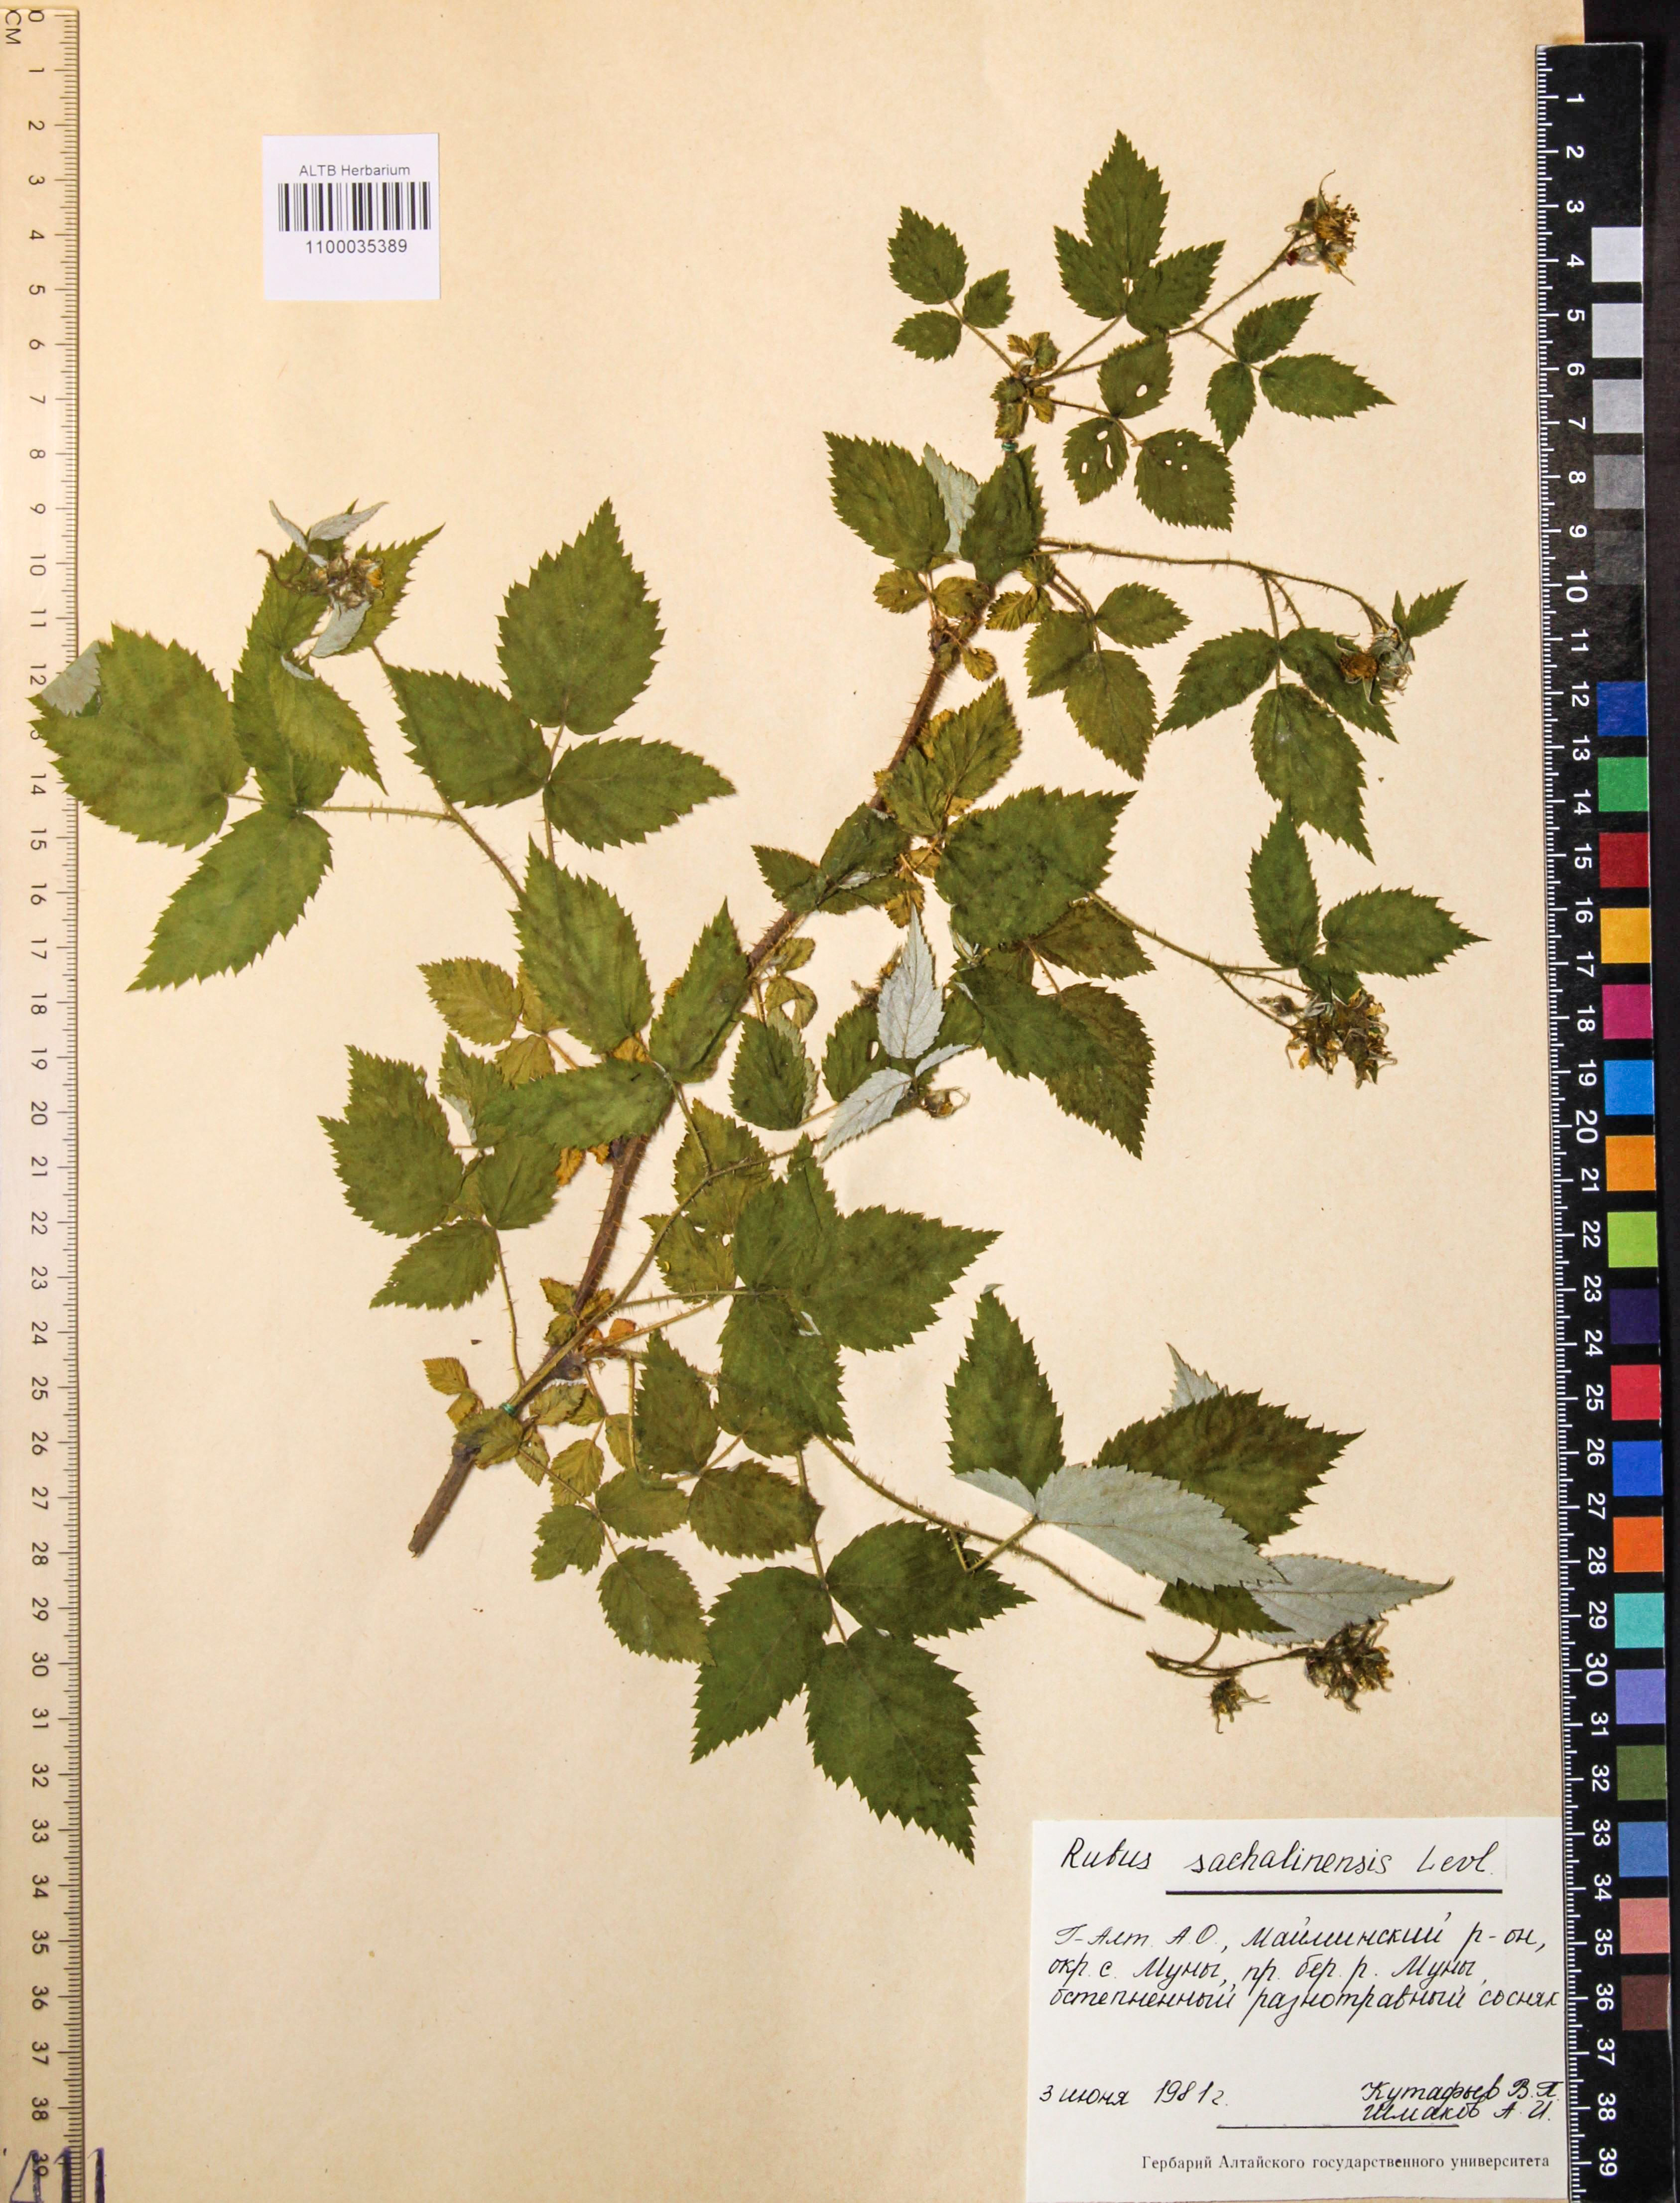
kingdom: Plantae
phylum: Tracheophyta
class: Magnoliopsida
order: Rosales
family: Rosaceae
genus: Rubus
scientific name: Rubus sachalinensis
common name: Red raspberry
